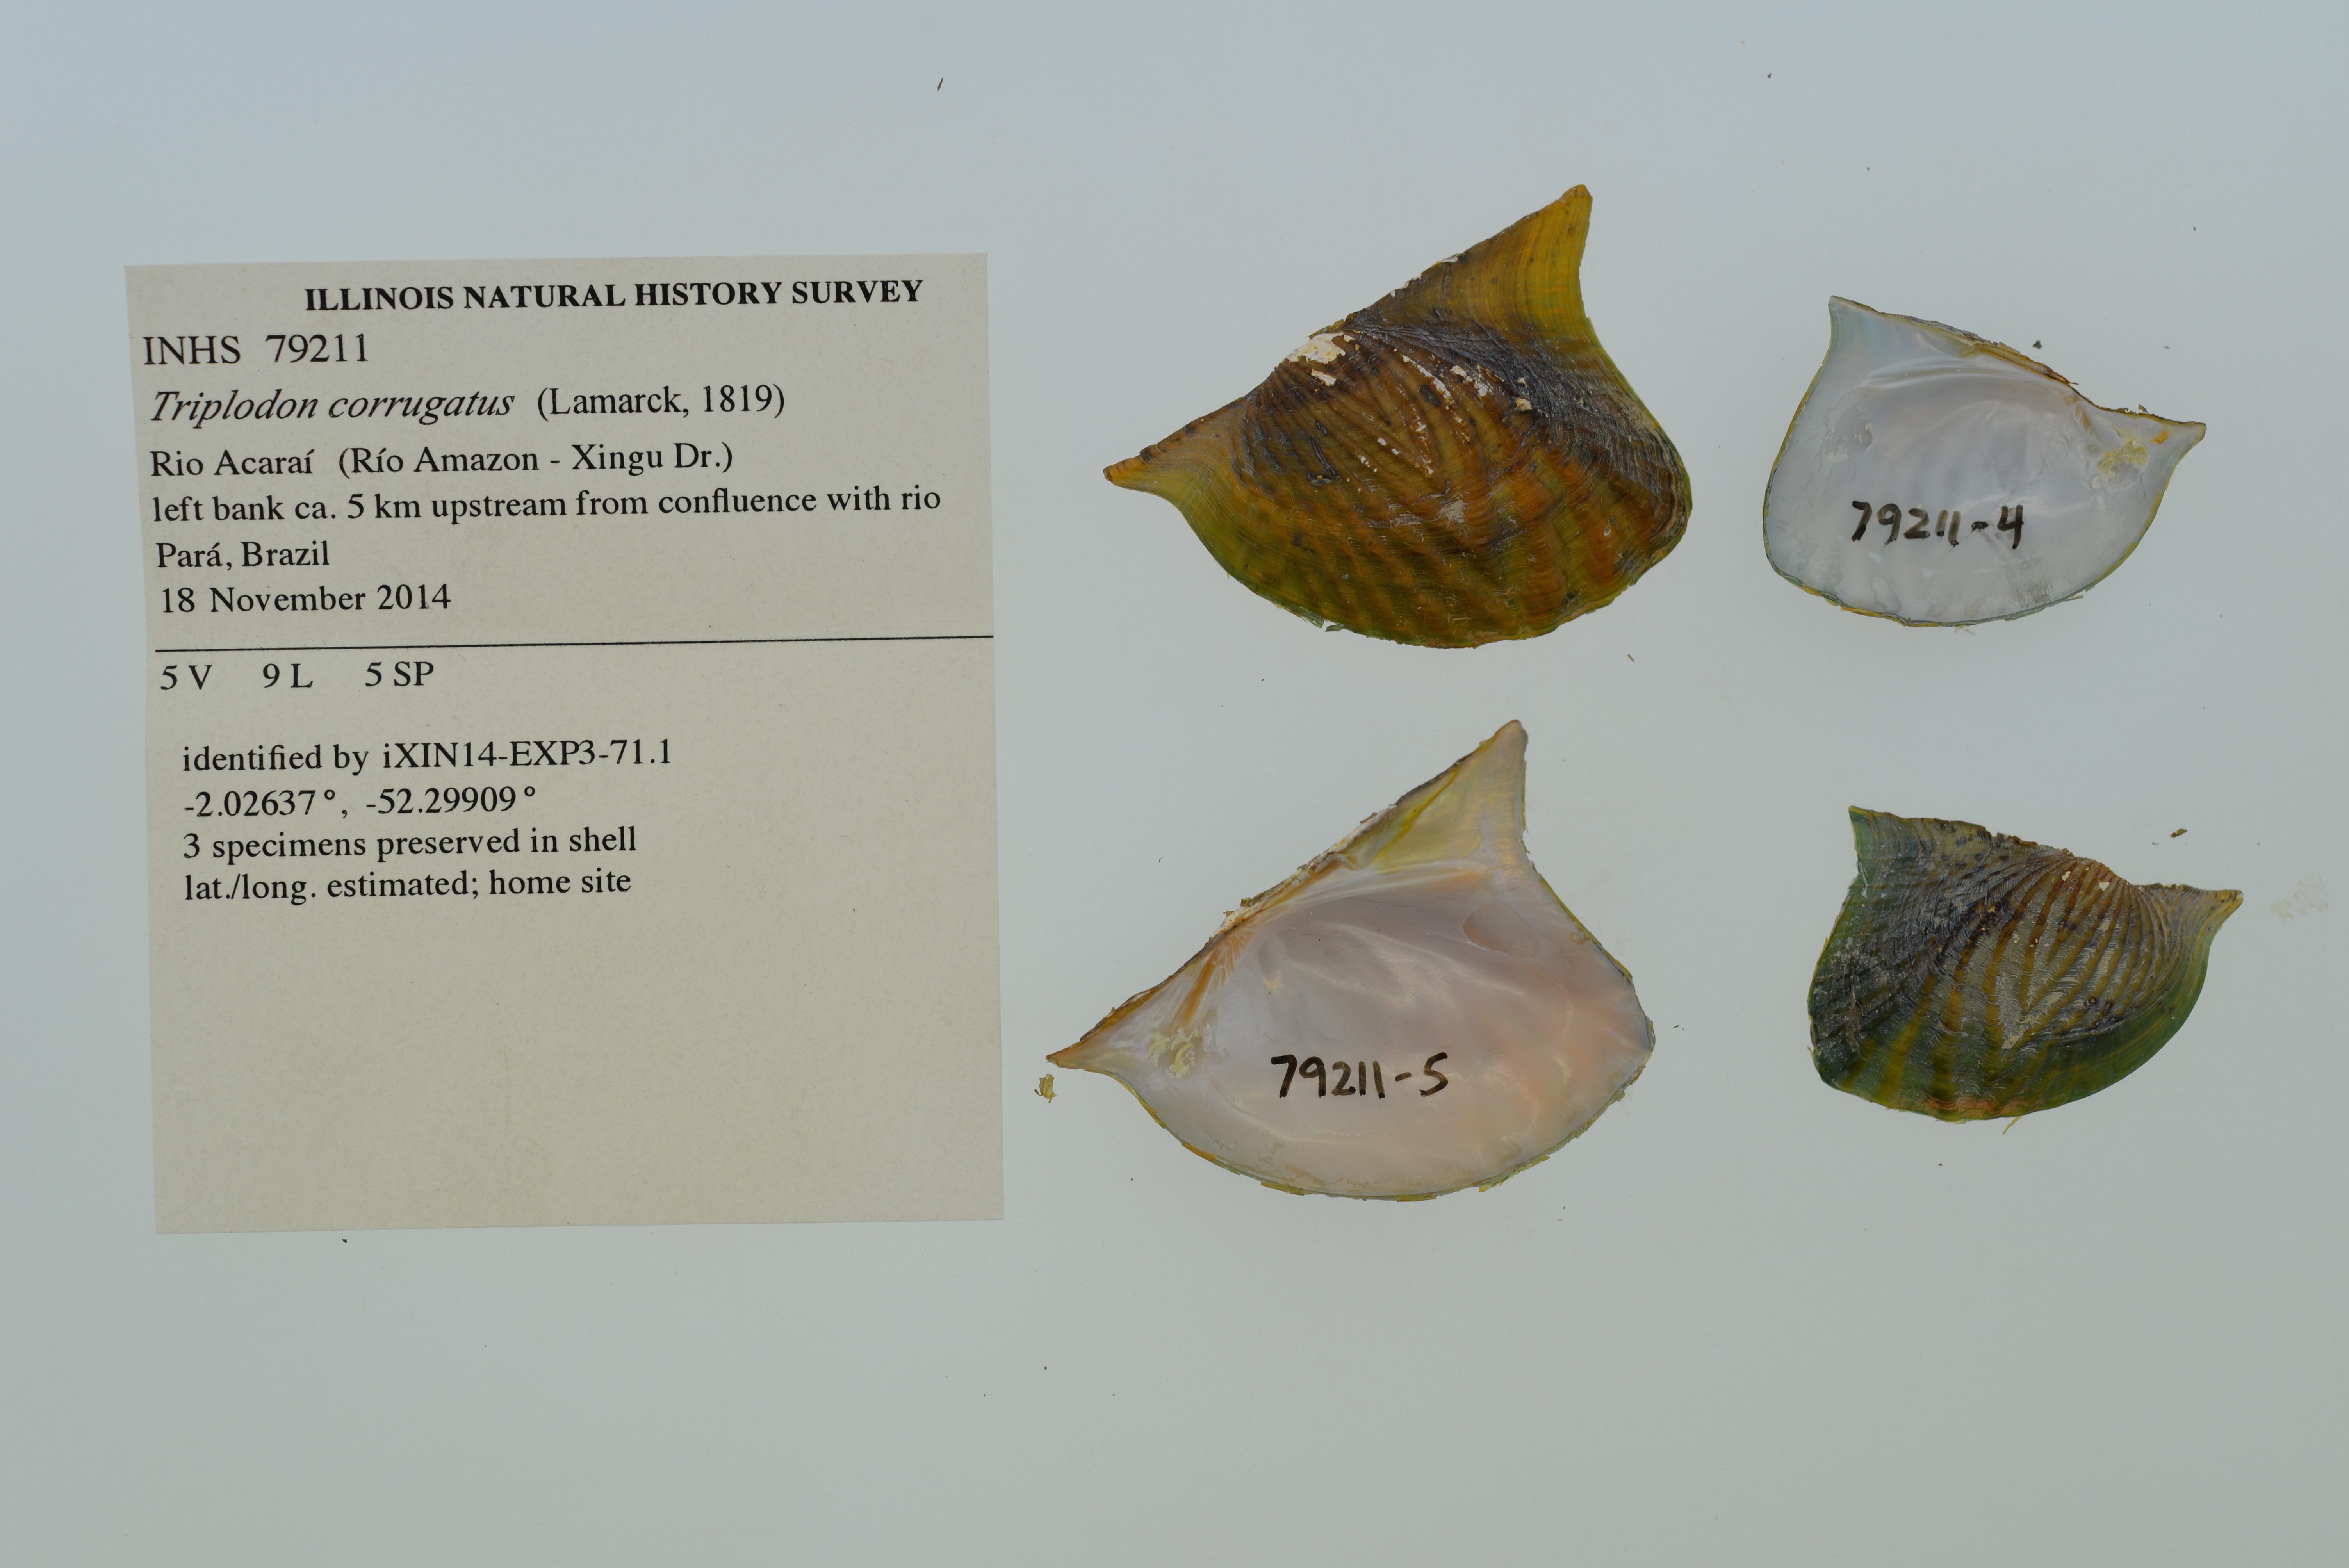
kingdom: Animalia
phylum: Mollusca
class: Bivalvia
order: Unionida
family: Hyriidae
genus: Triplodon
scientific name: Triplodon corrugatus
